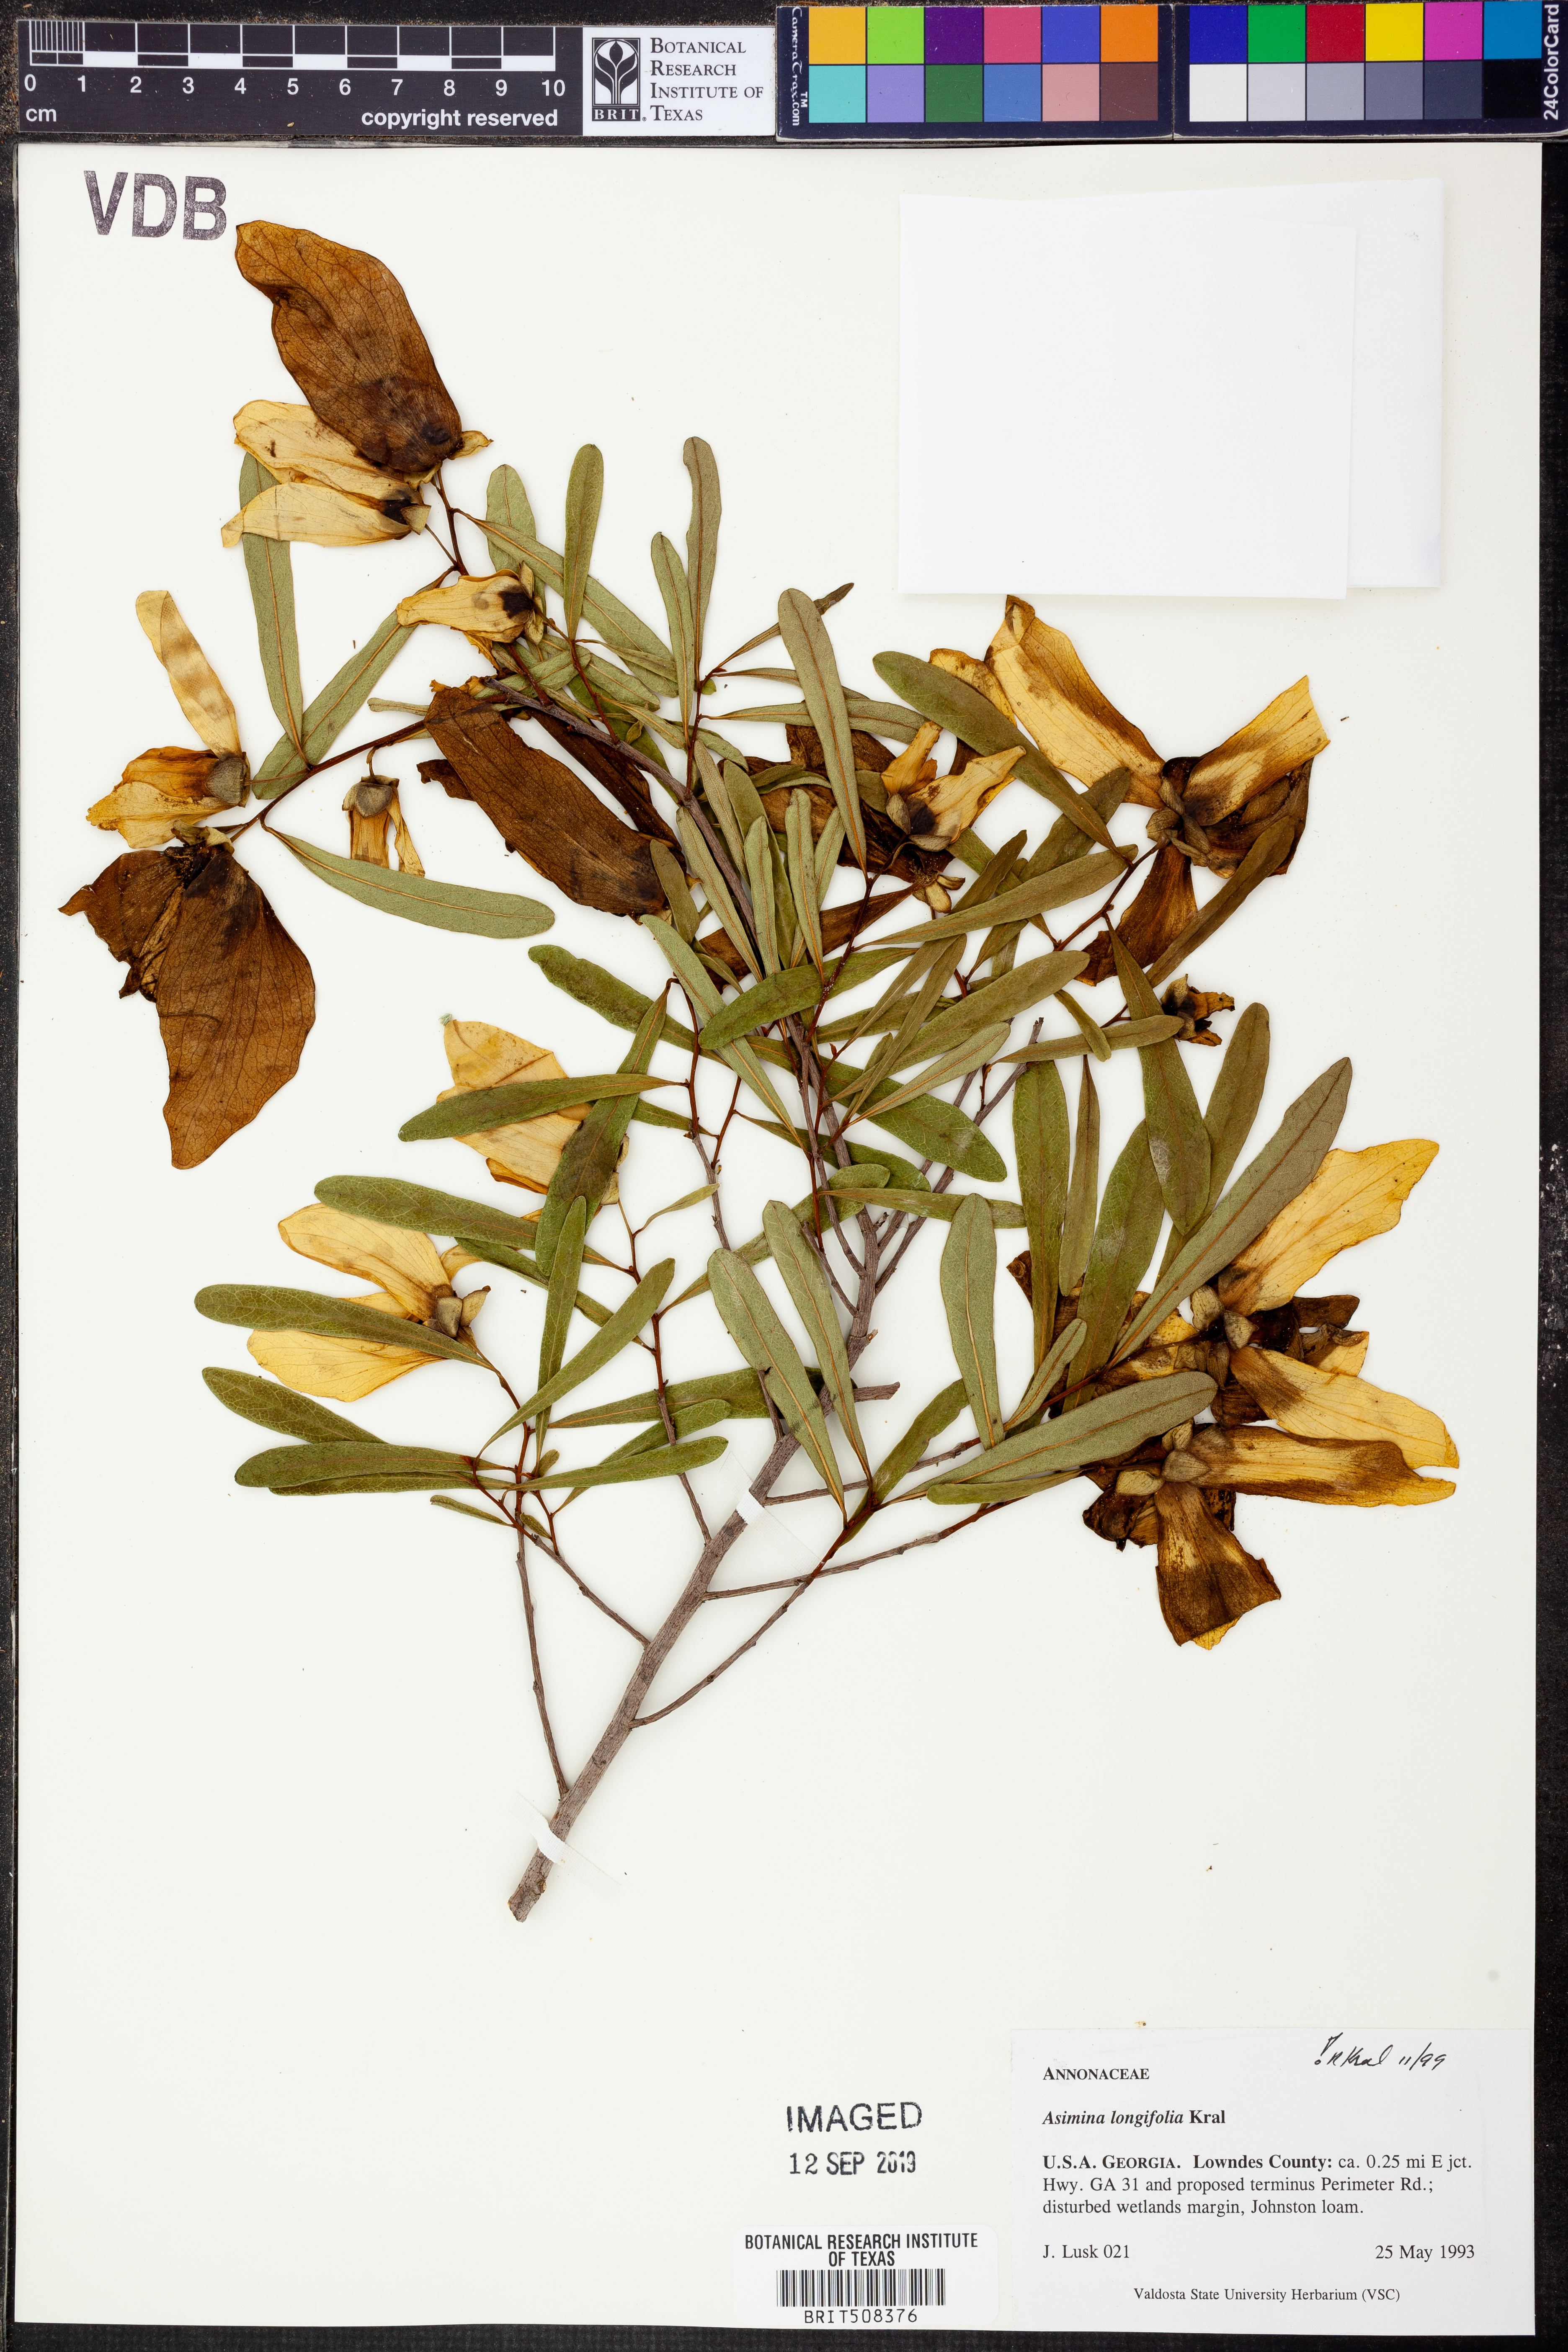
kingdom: Plantae
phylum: Tracheophyta
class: Magnoliopsida
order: Magnoliales
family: Annonaceae
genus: Asimina
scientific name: Asimina longifolia
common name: Polecatbush
